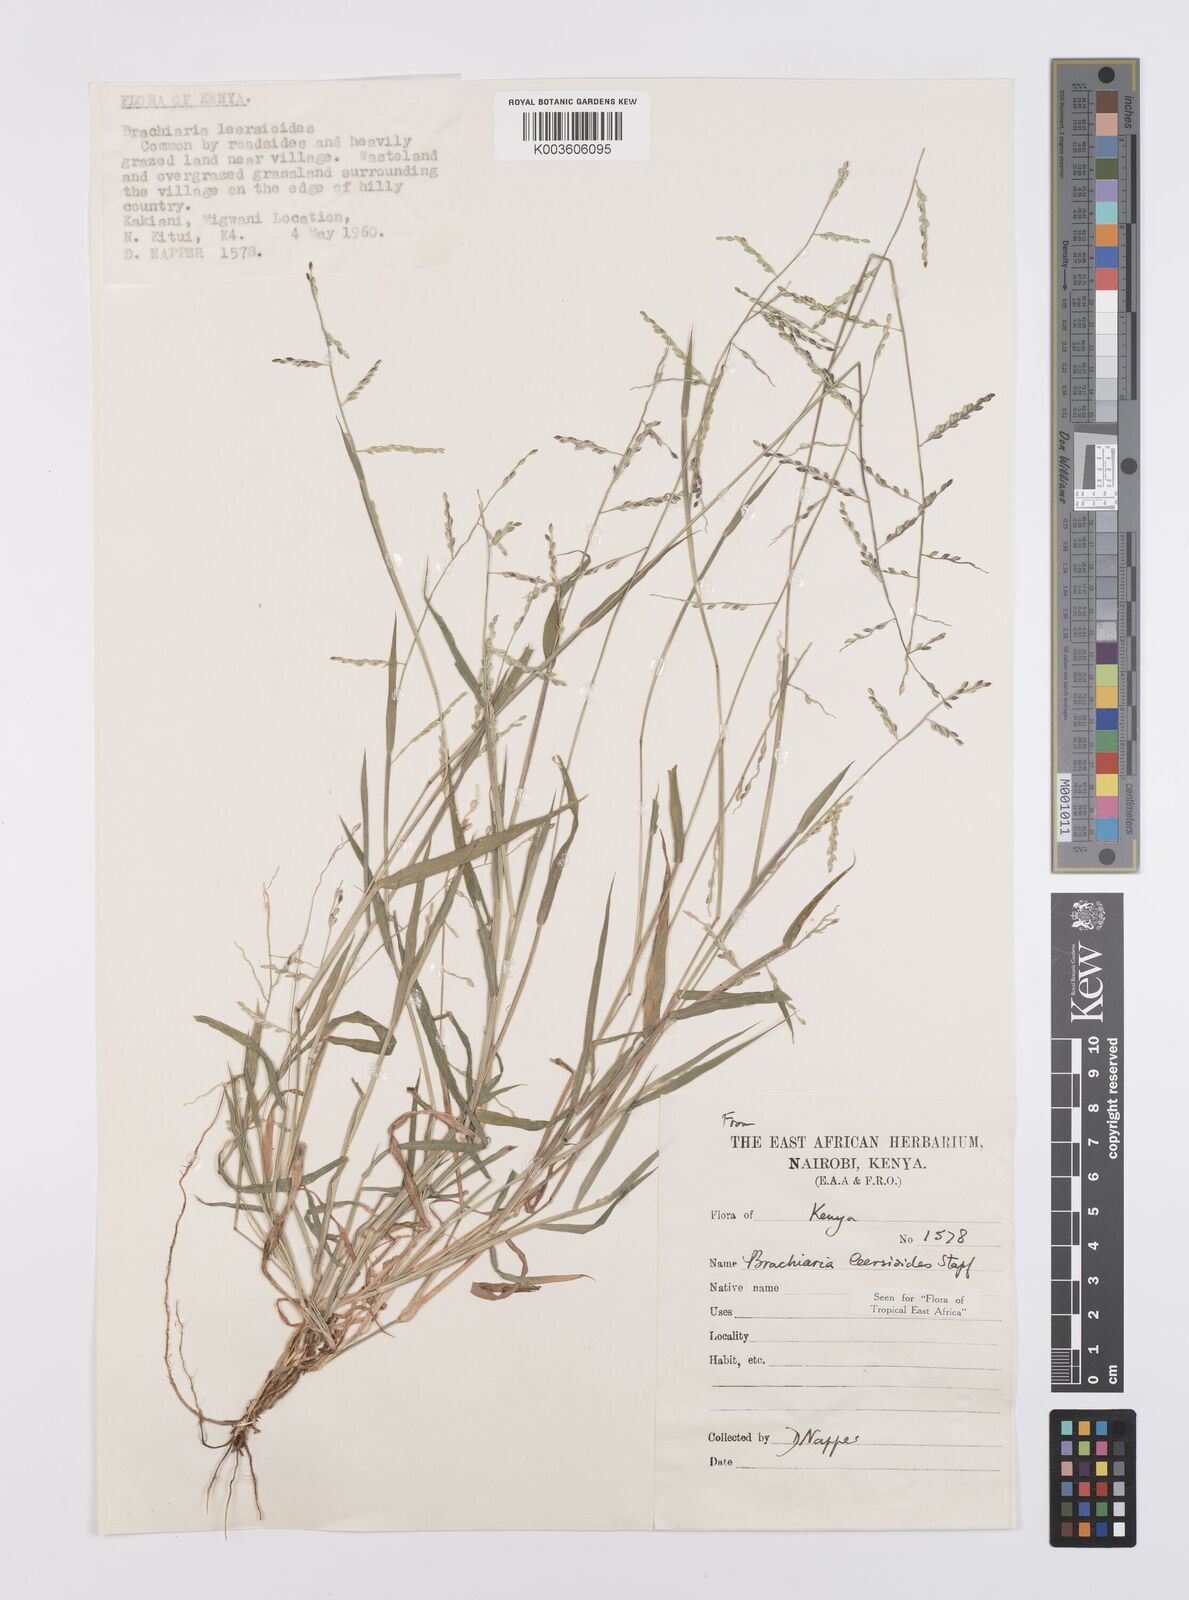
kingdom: Plantae
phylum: Tracheophyta
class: Liliopsida
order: Poales
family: Poaceae
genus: Urochloa
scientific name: Urochloa leersioides
